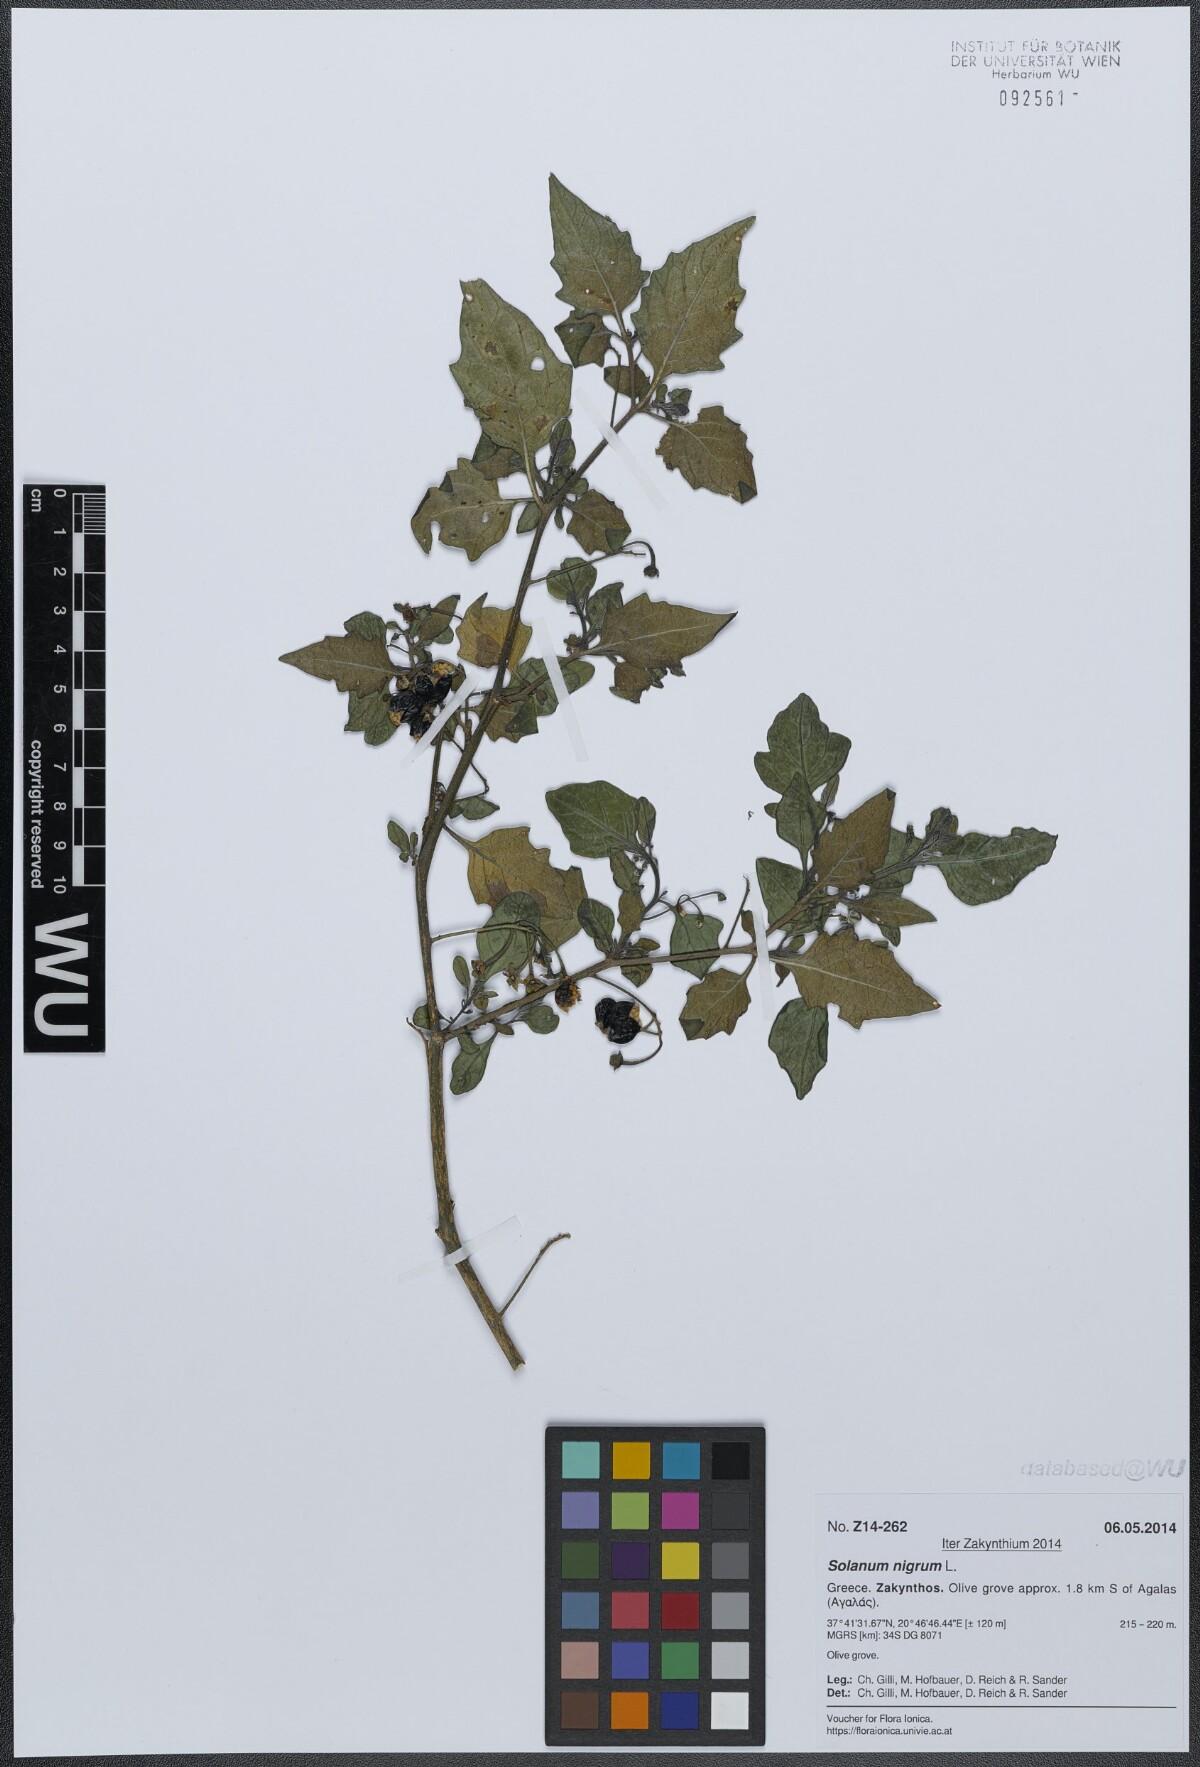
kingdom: Plantae
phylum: Tracheophyta
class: Magnoliopsida
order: Solanales
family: Solanaceae
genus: Solanum
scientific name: Solanum nigrum
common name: Black nightshade
